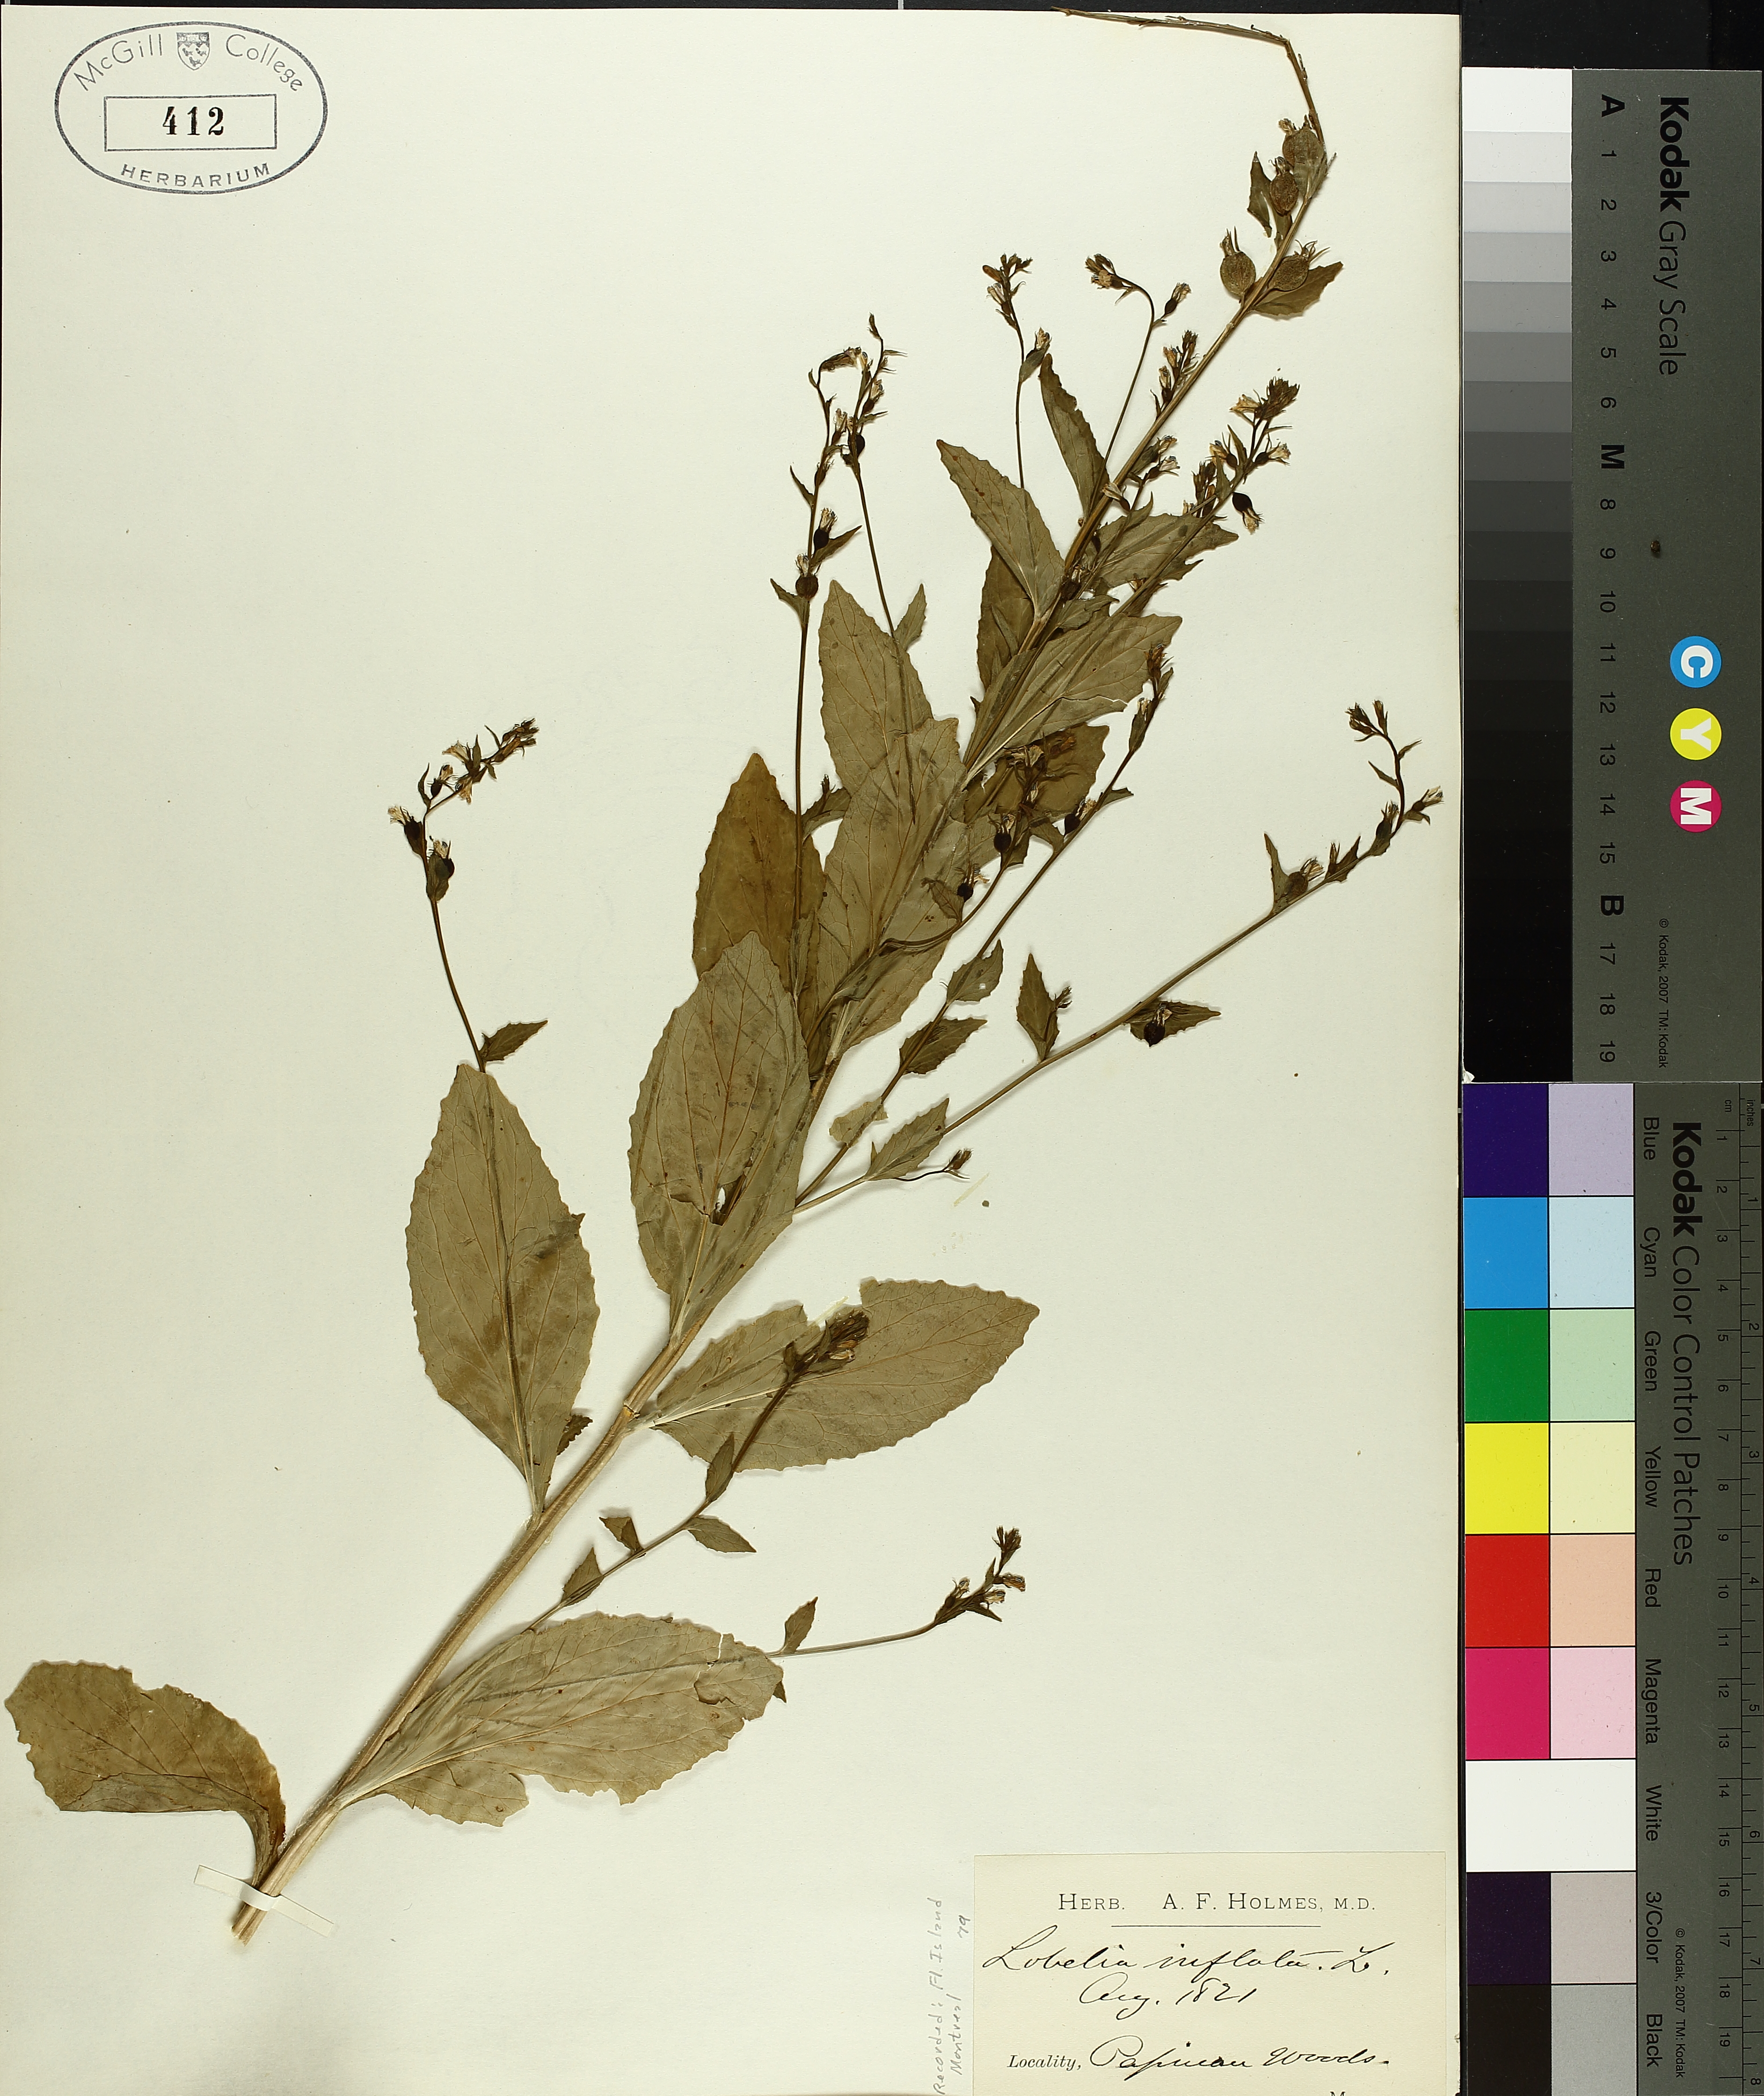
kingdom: Plantae
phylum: Tracheophyta
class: Magnoliopsida
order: Asterales
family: Campanulaceae
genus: Lobelia
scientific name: Lobelia inflata
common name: Indian tobacco
